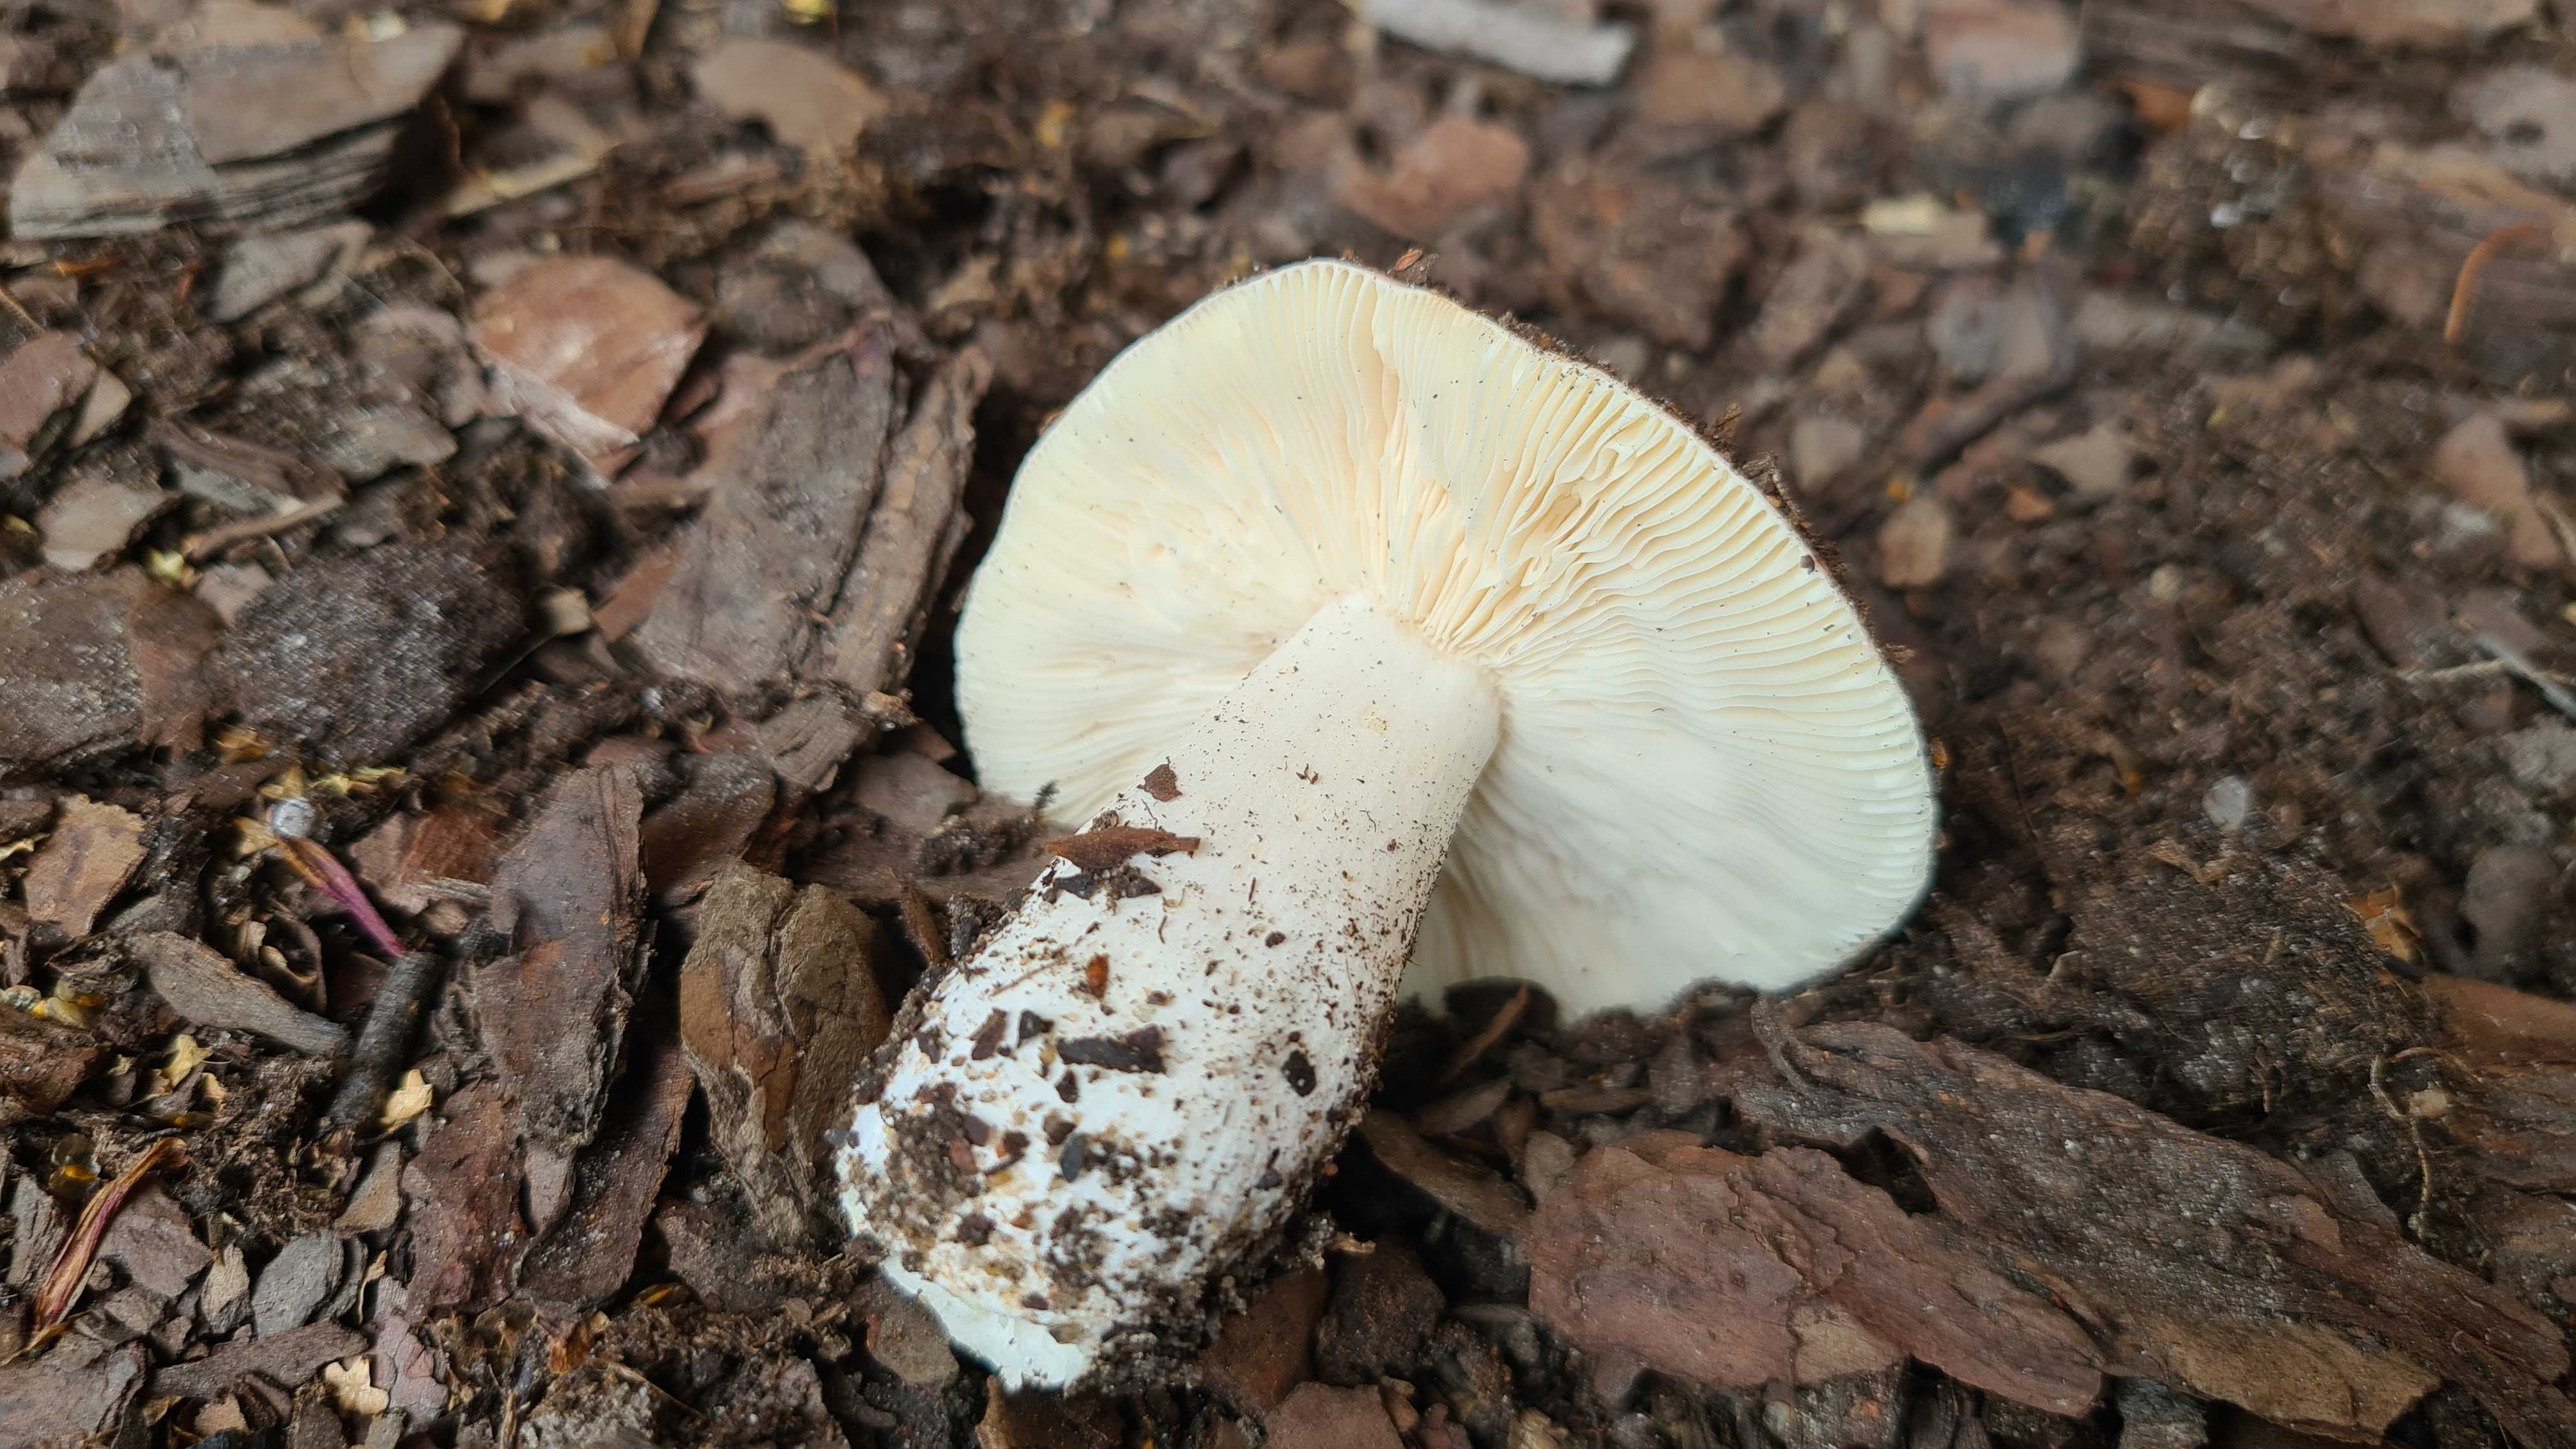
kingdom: Fungi
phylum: Basidiomycota
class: Agaricomycetes
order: Russulales
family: Russulaceae
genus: Russula
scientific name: Russula depallens
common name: falmende skørhat
